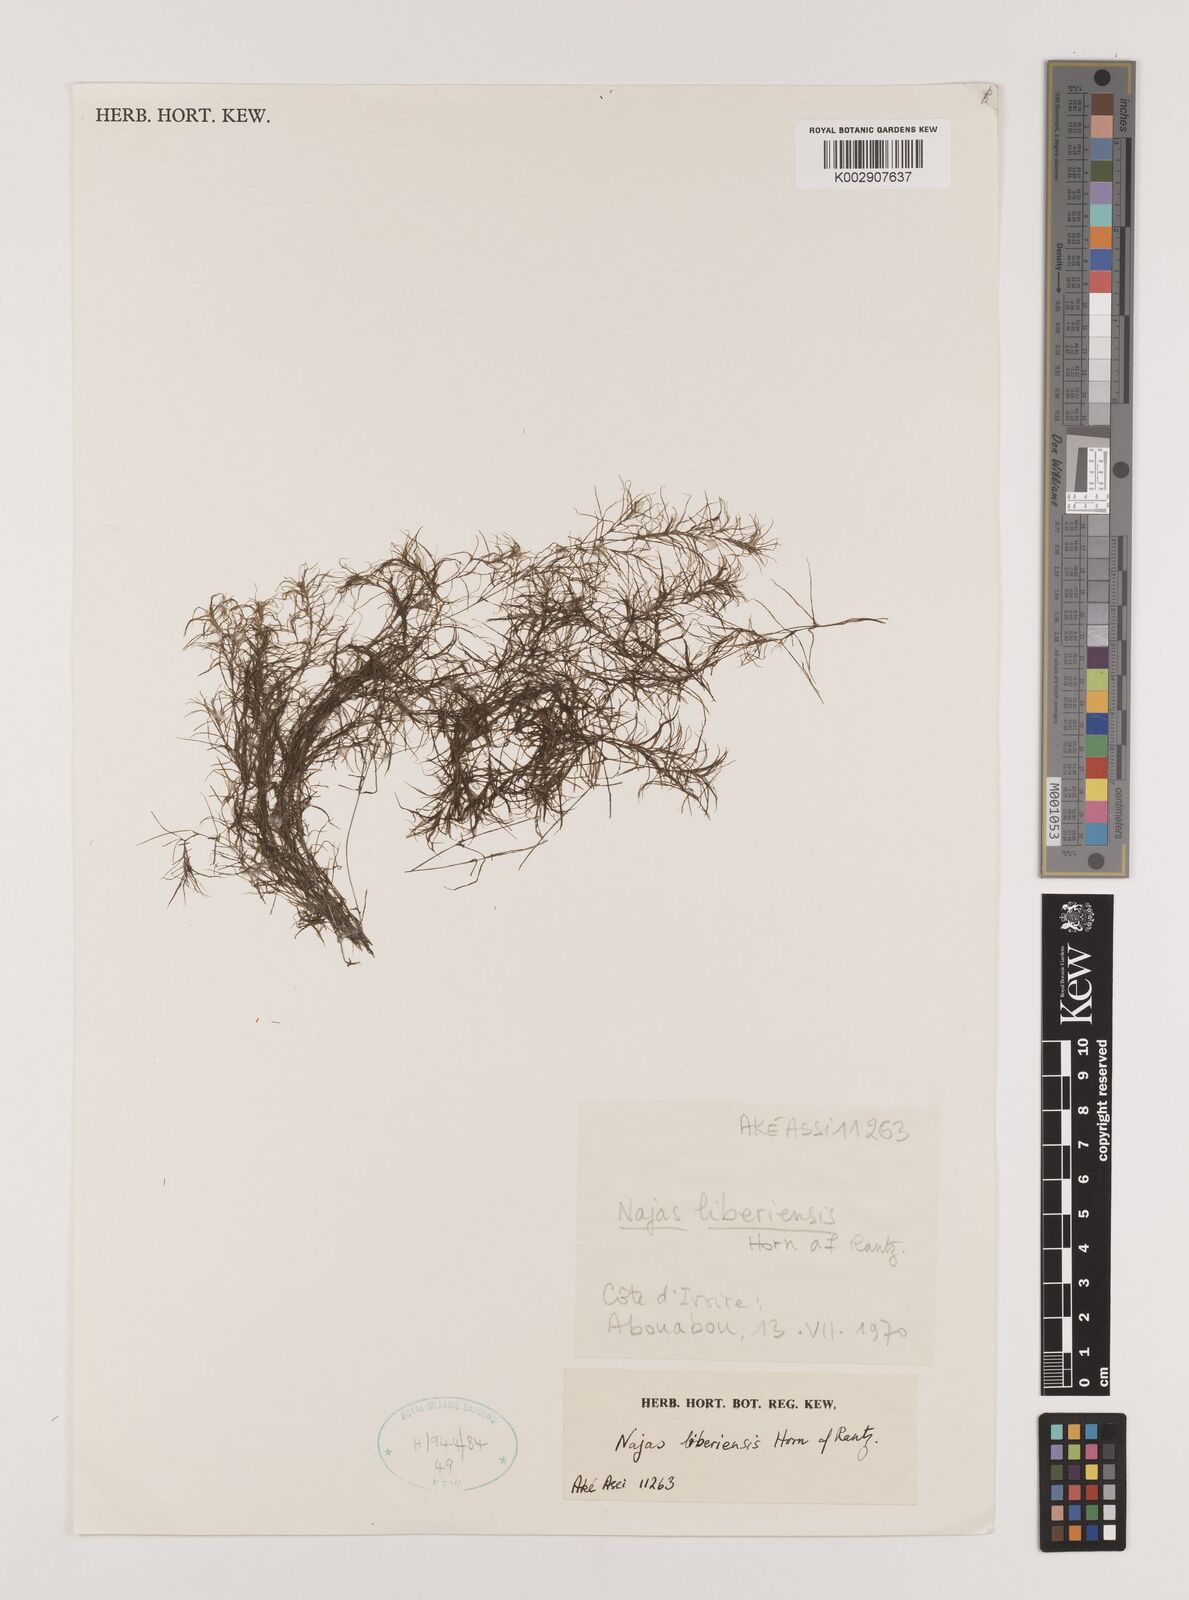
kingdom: Plantae
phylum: Tracheophyta
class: Liliopsida
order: Alismatales
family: Hydrocharitaceae
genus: Najas
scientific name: Najas baldwinii
